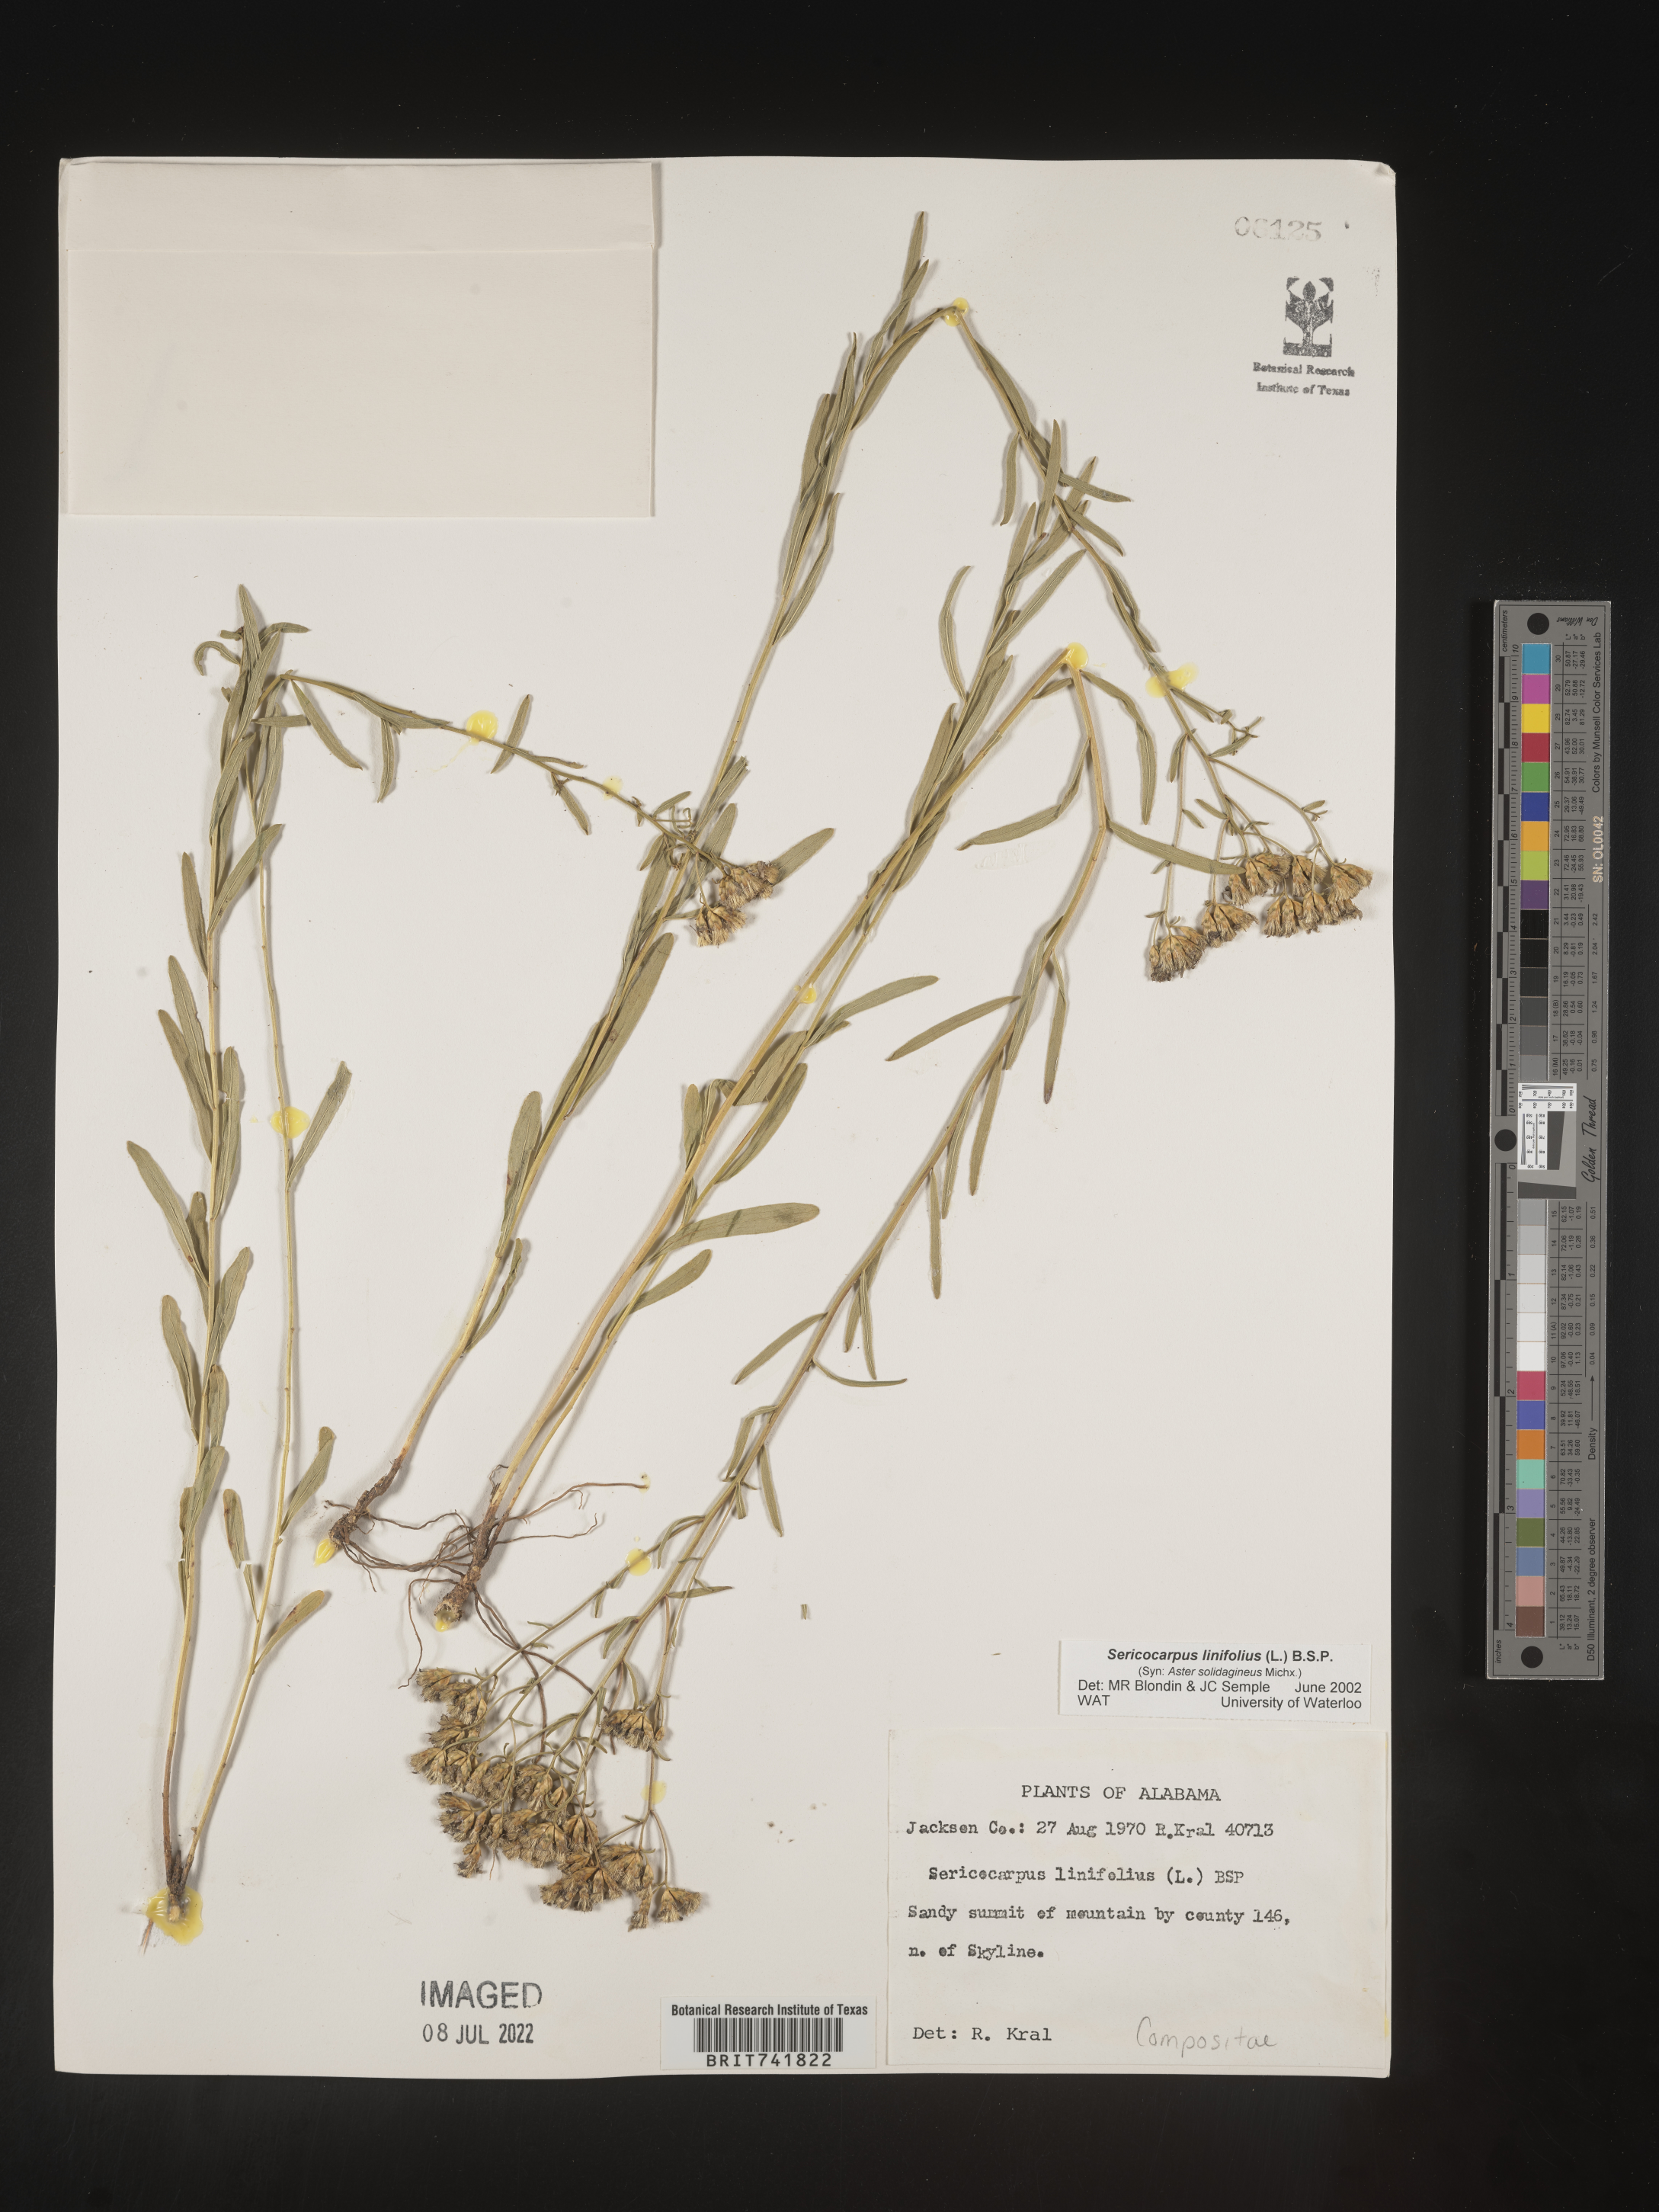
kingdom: Plantae
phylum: Tracheophyta
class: Magnoliopsida
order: Asterales
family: Asteraceae
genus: Sericocarpus
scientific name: Sericocarpus linifolius
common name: Narrow-leaf aster
